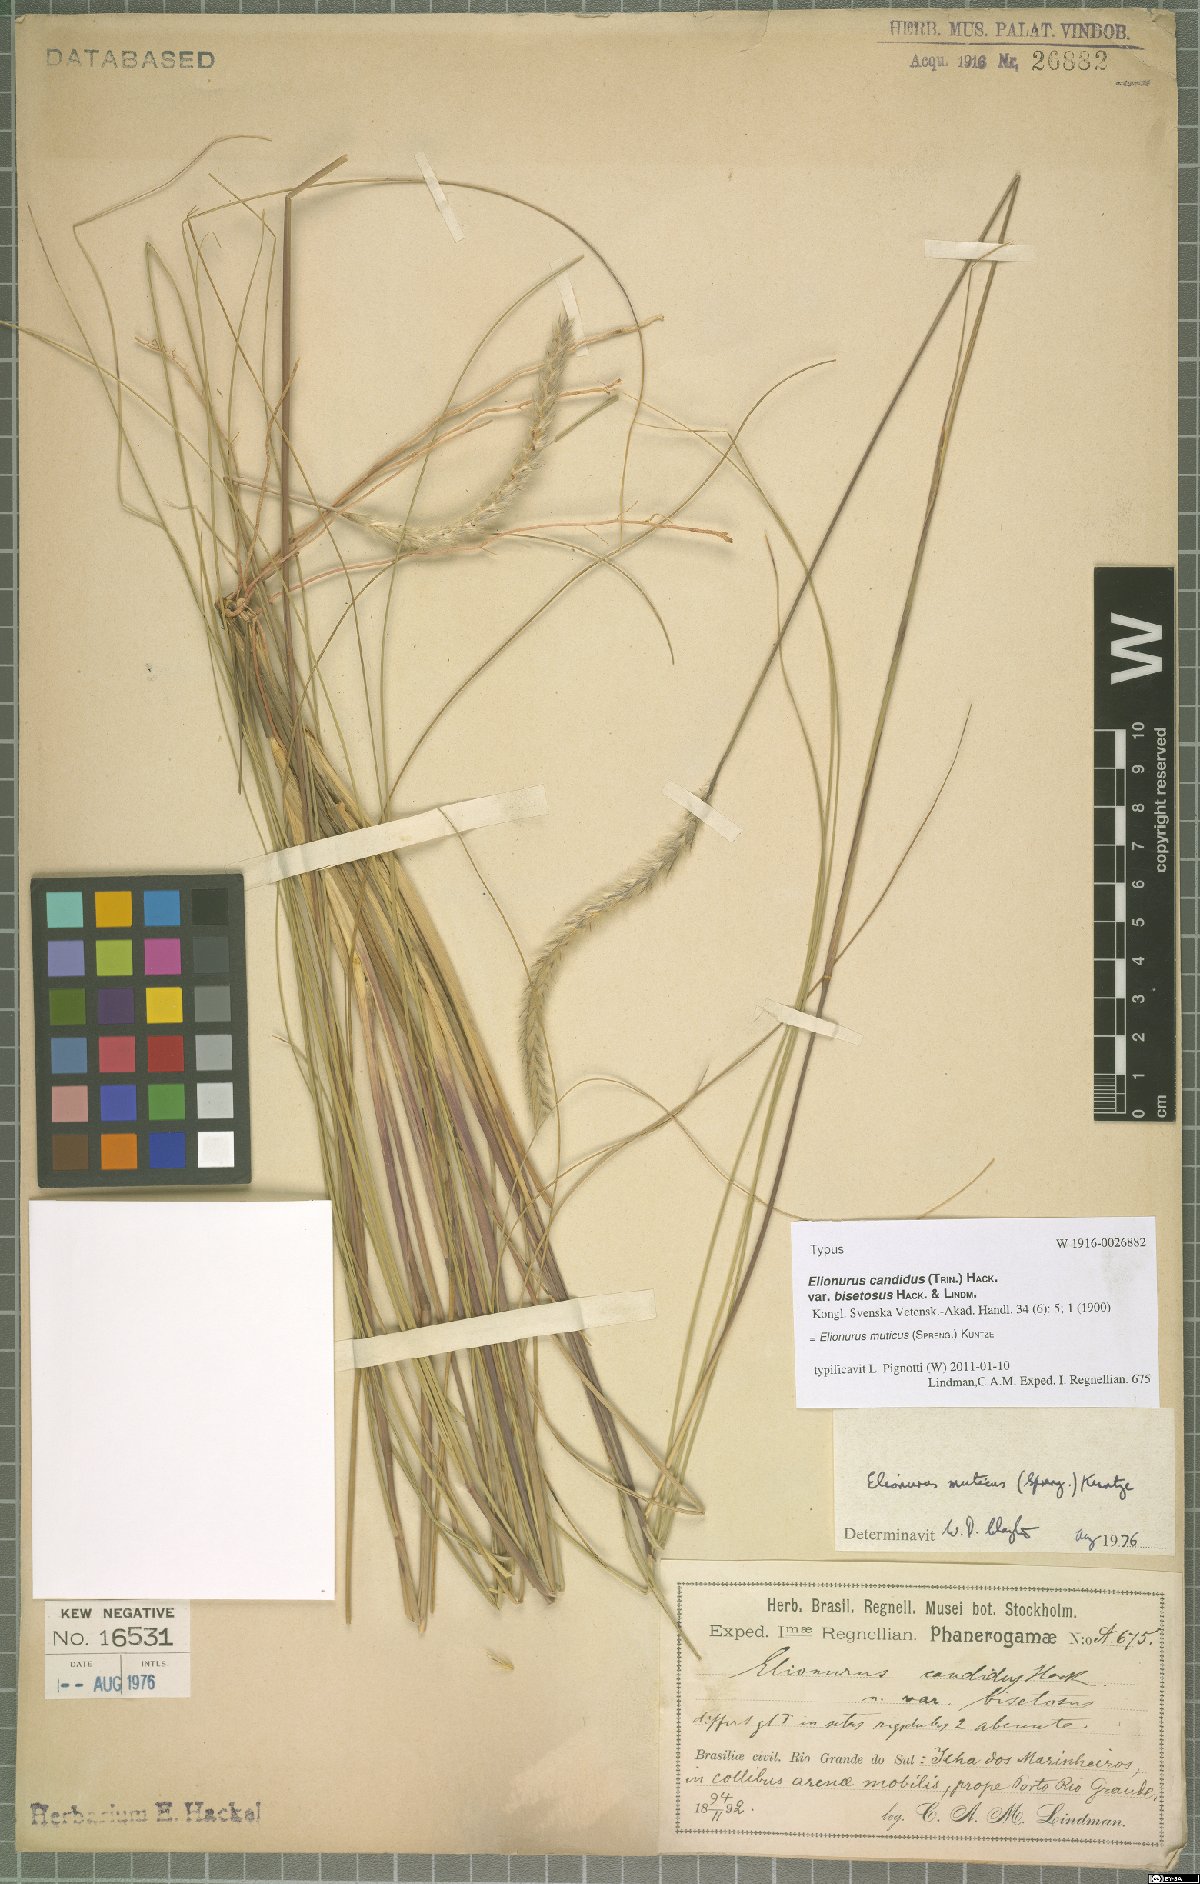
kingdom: Plantae
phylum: Tracheophyta
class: Liliopsida
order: Poales
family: Poaceae
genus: Elionurus
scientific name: Elionurus muticus
